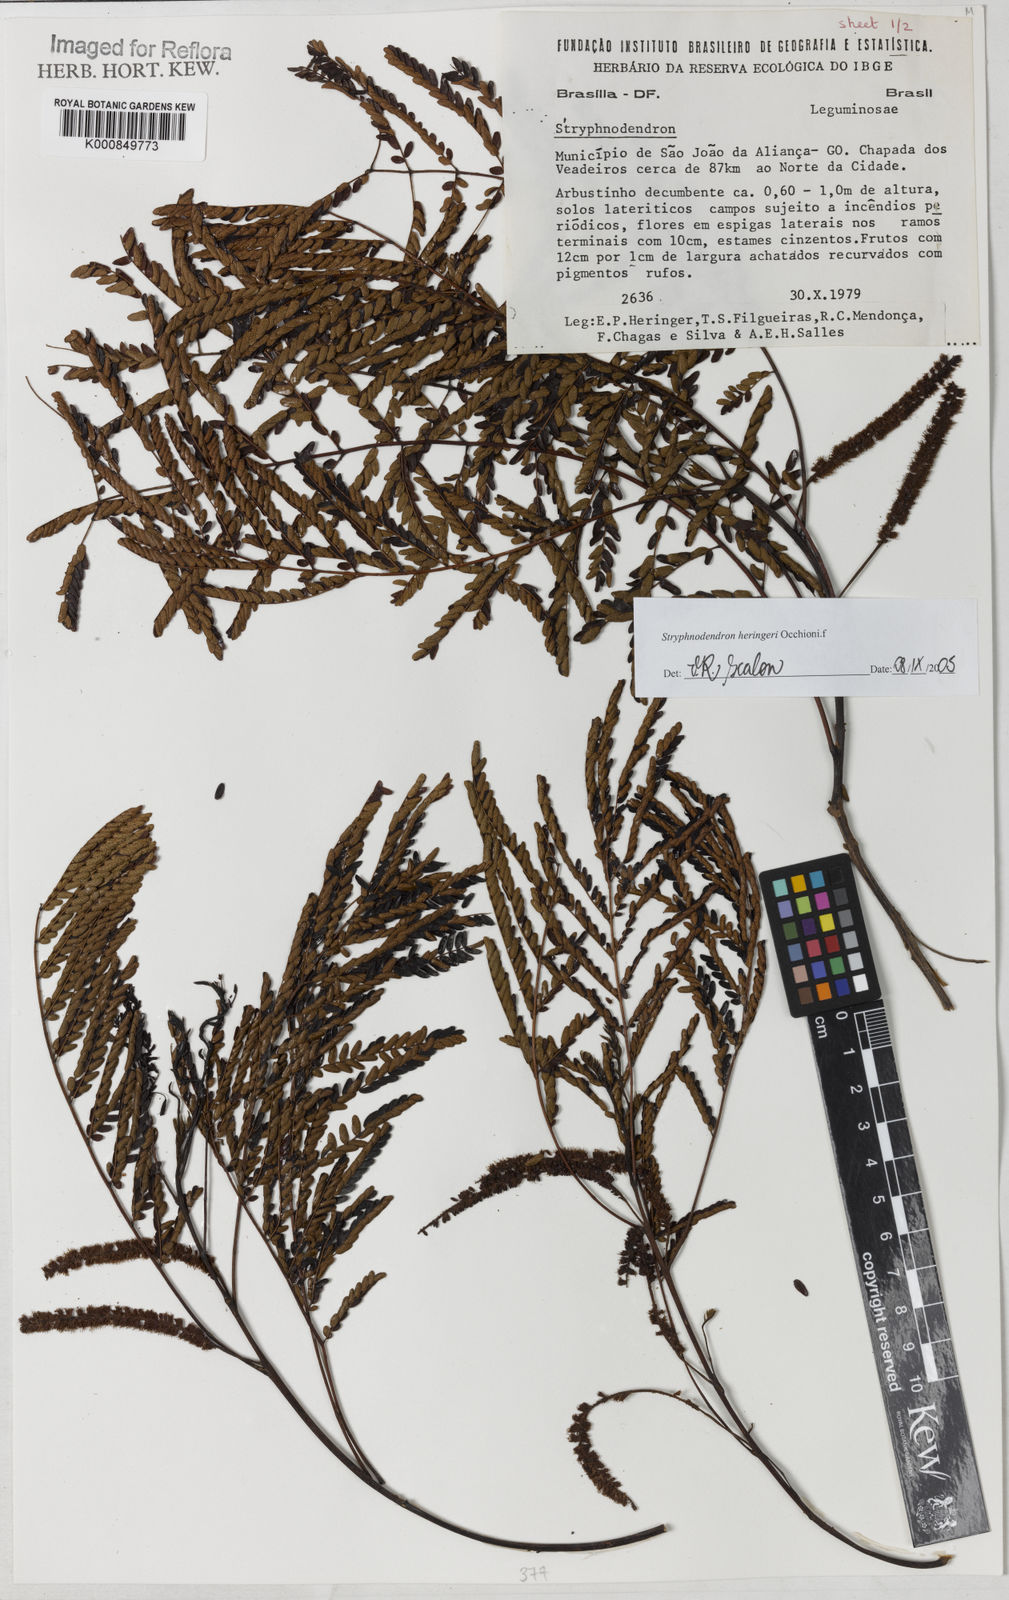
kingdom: Plantae
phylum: Tracheophyta
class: Magnoliopsida
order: Fabales
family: Fabaceae
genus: Stryphnodendron
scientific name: Stryphnodendron heringeri
